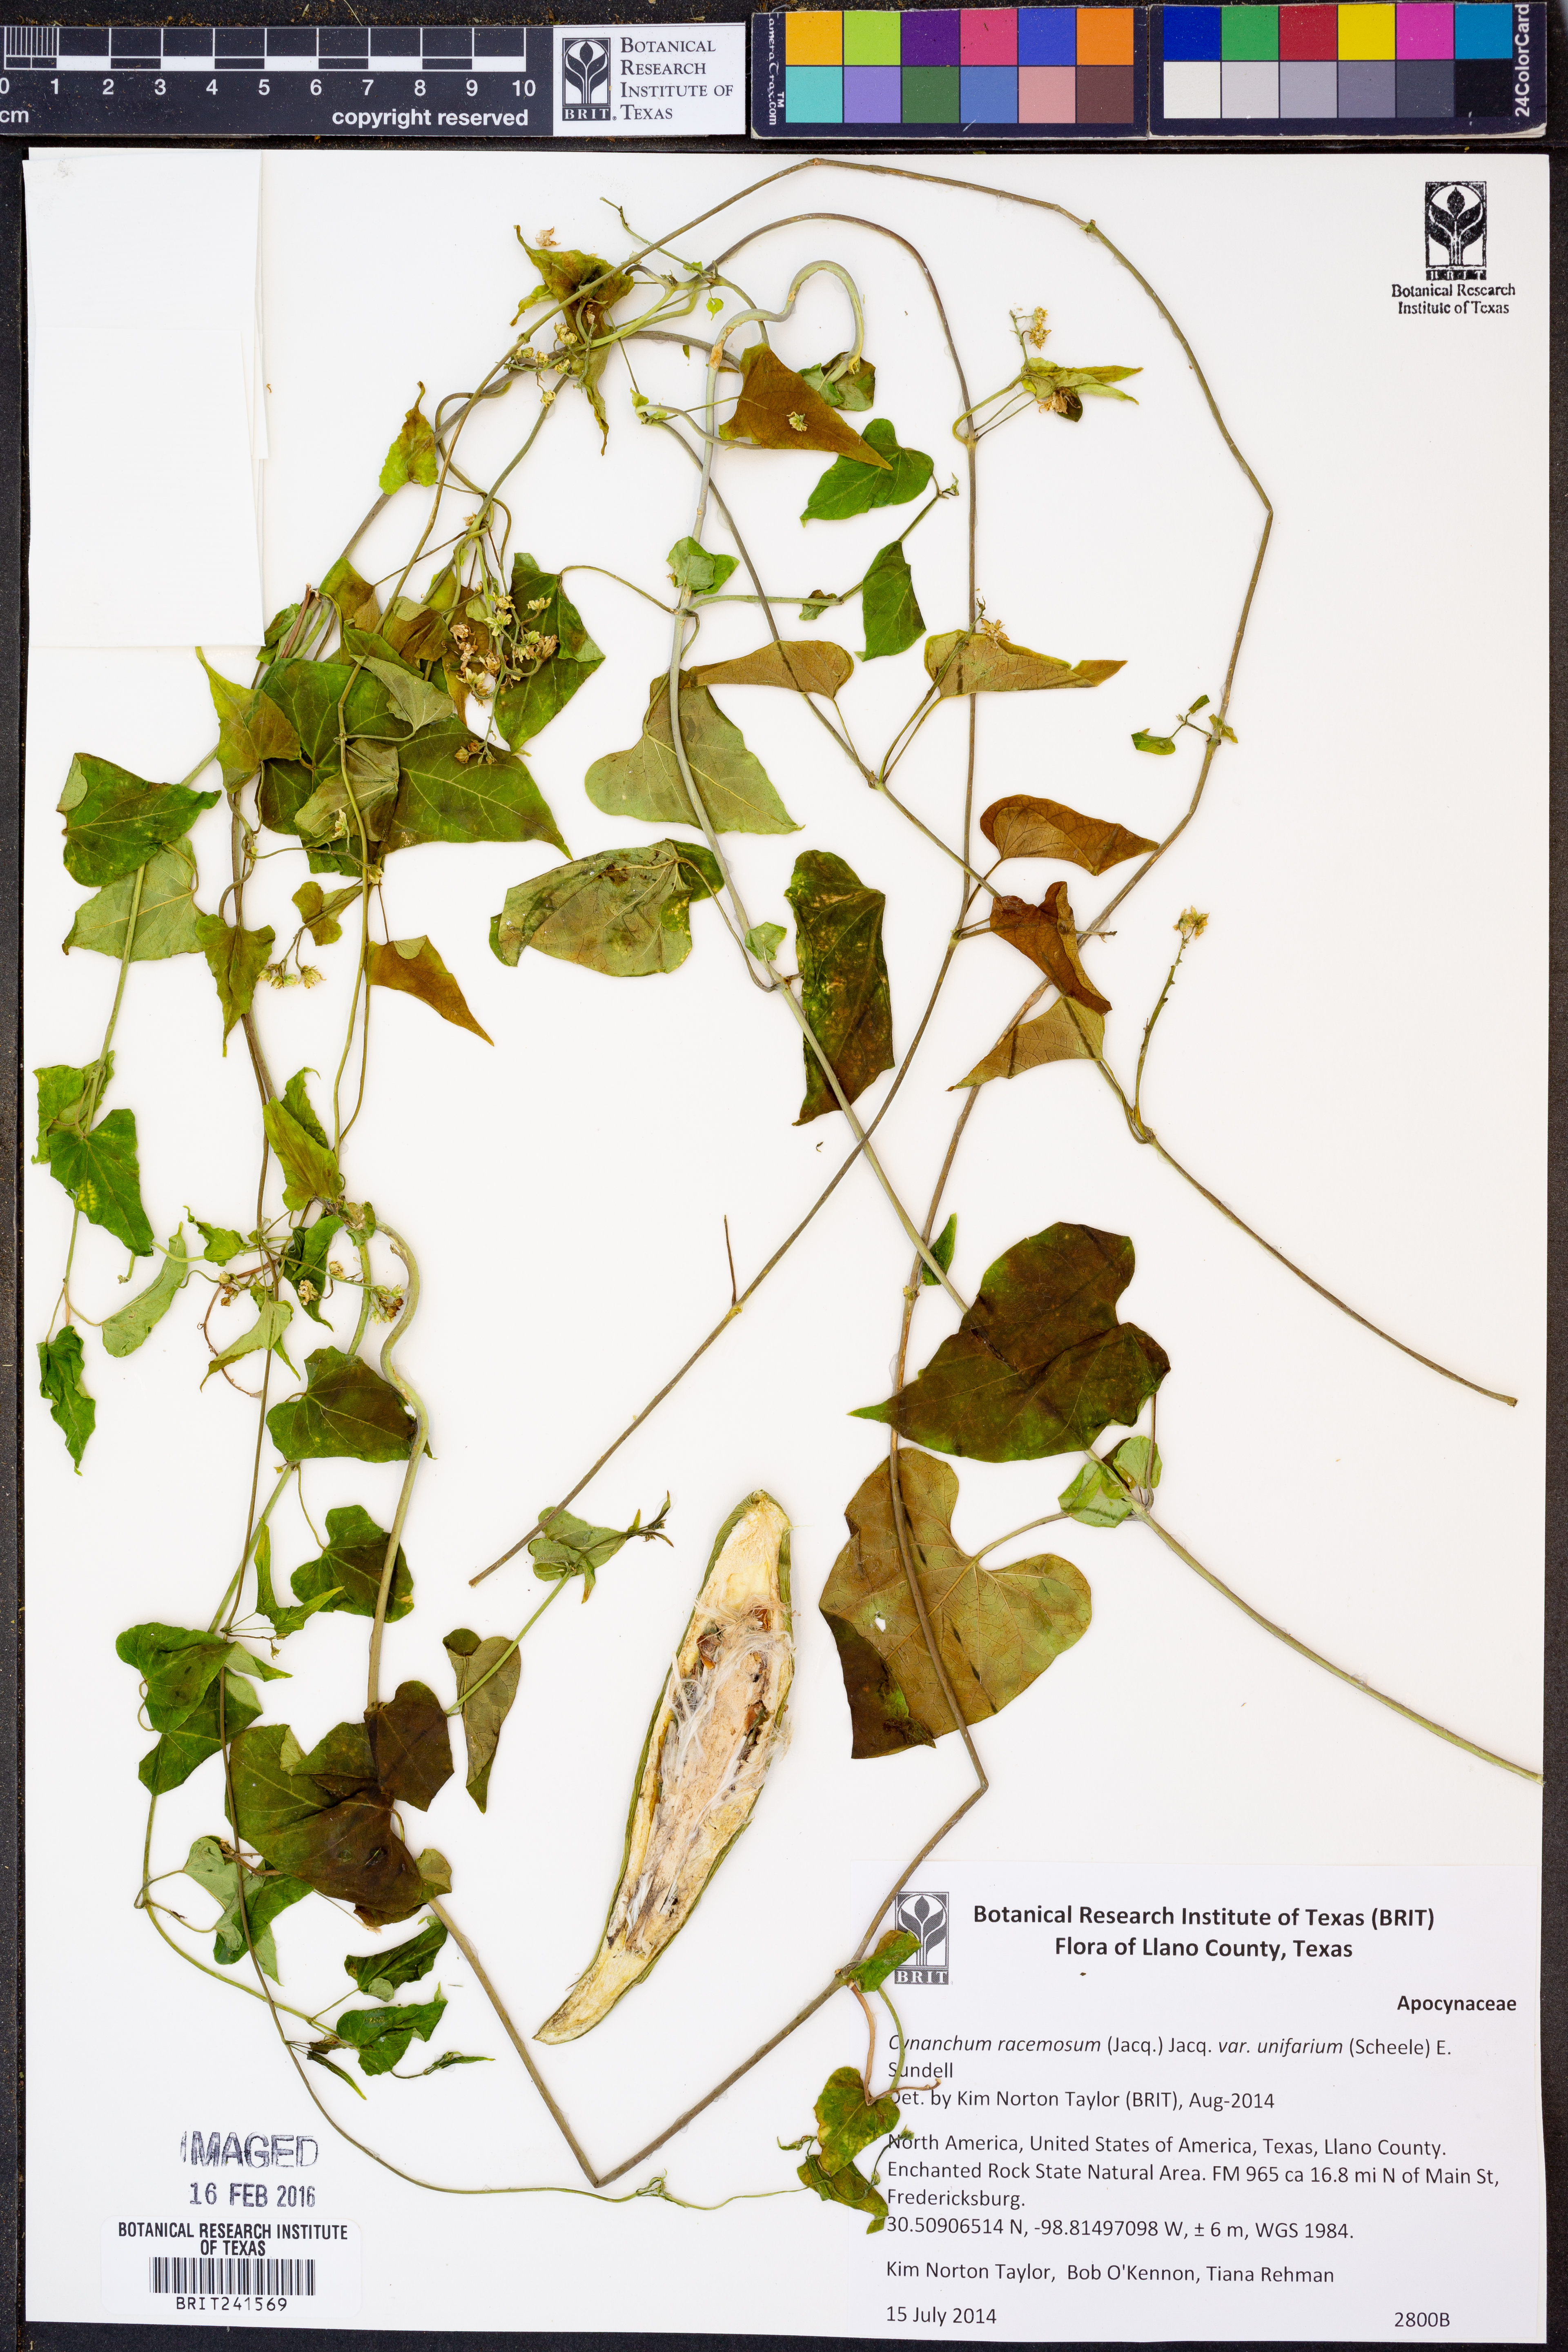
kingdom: Plantae
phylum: Tracheophyta
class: Magnoliopsida
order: Gentianales
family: Apocynaceae
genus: Cynanchum
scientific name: Cynanchum racemosum
